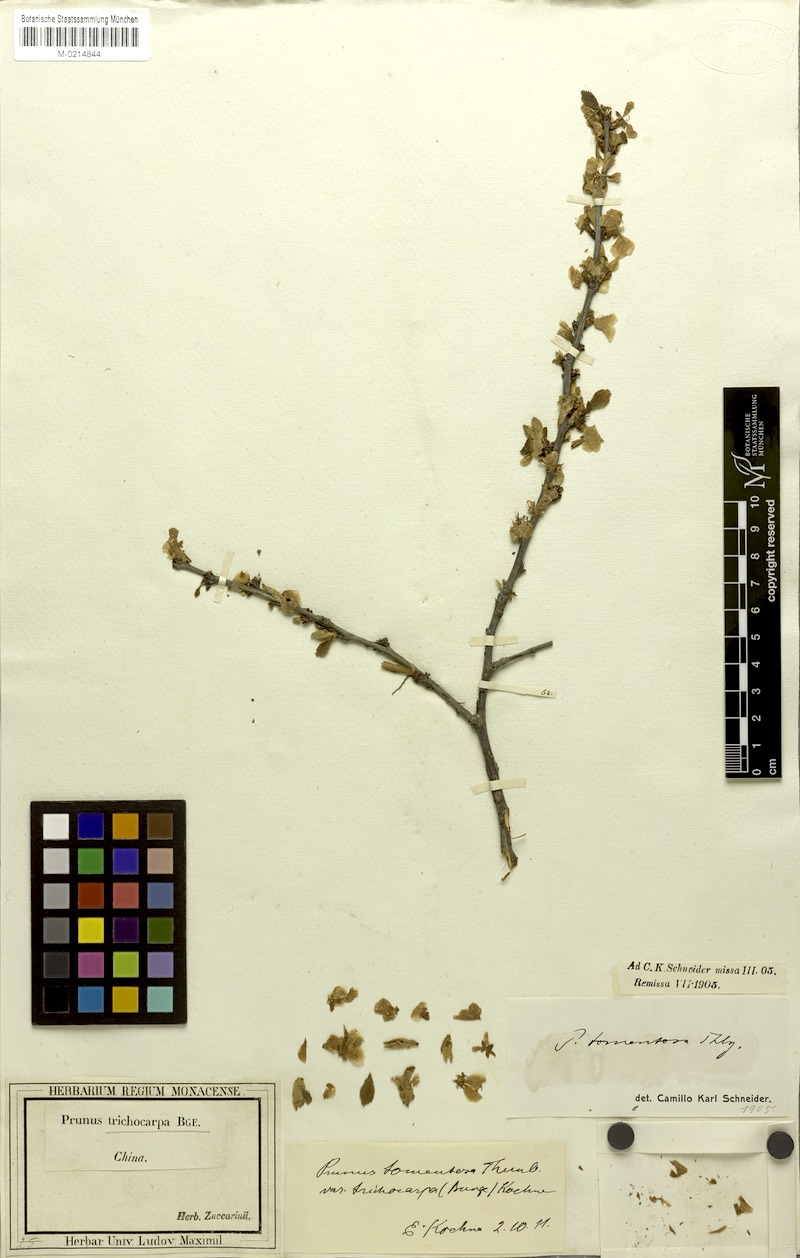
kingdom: Plantae
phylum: Tracheophyta
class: Magnoliopsida
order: Rosales
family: Rosaceae
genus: Prunus
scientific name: Prunus tomentosa
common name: Nanking cherry
